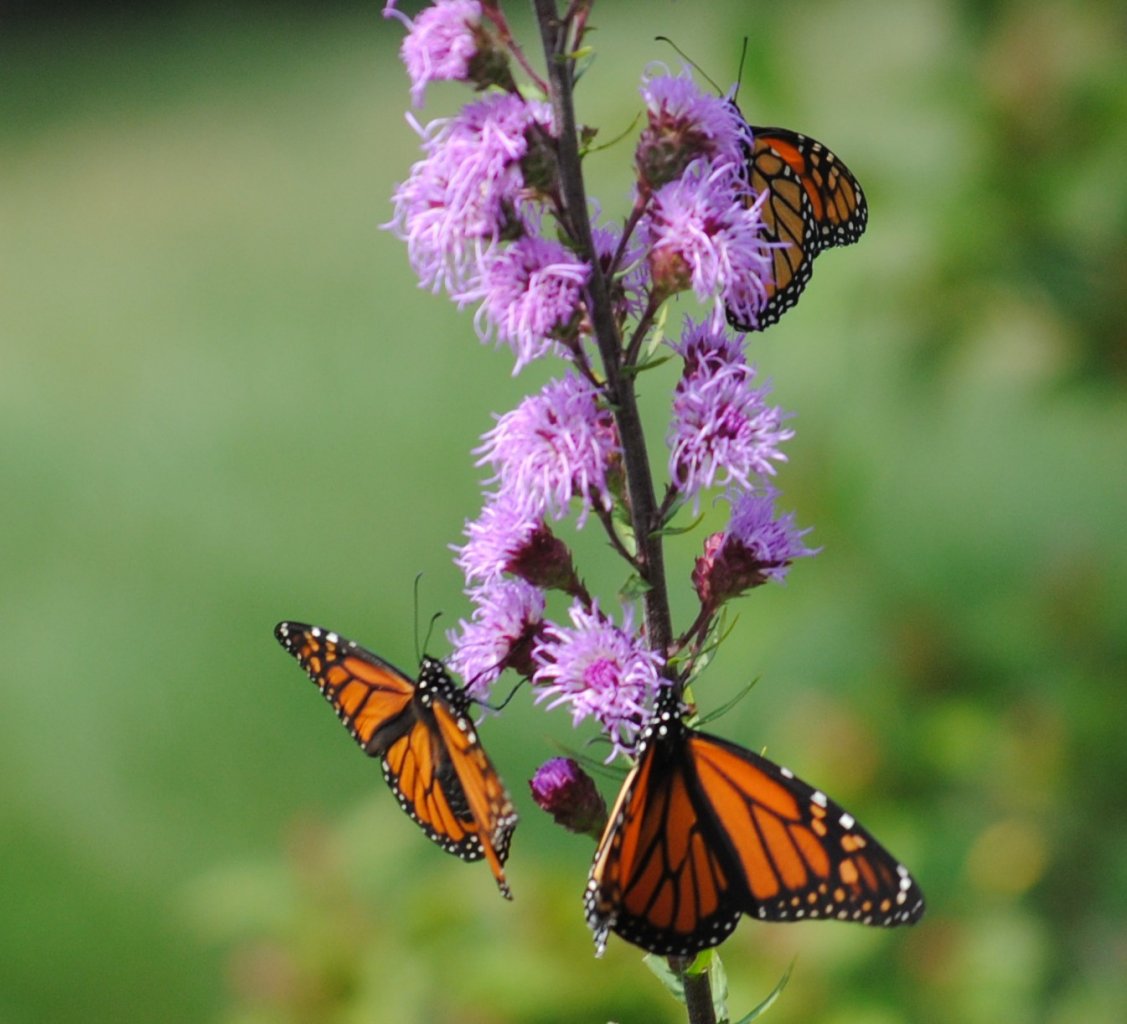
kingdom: Animalia
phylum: Arthropoda
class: Insecta
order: Lepidoptera
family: Nymphalidae
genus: Danaus
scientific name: Danaus plexippus
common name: Monarch
